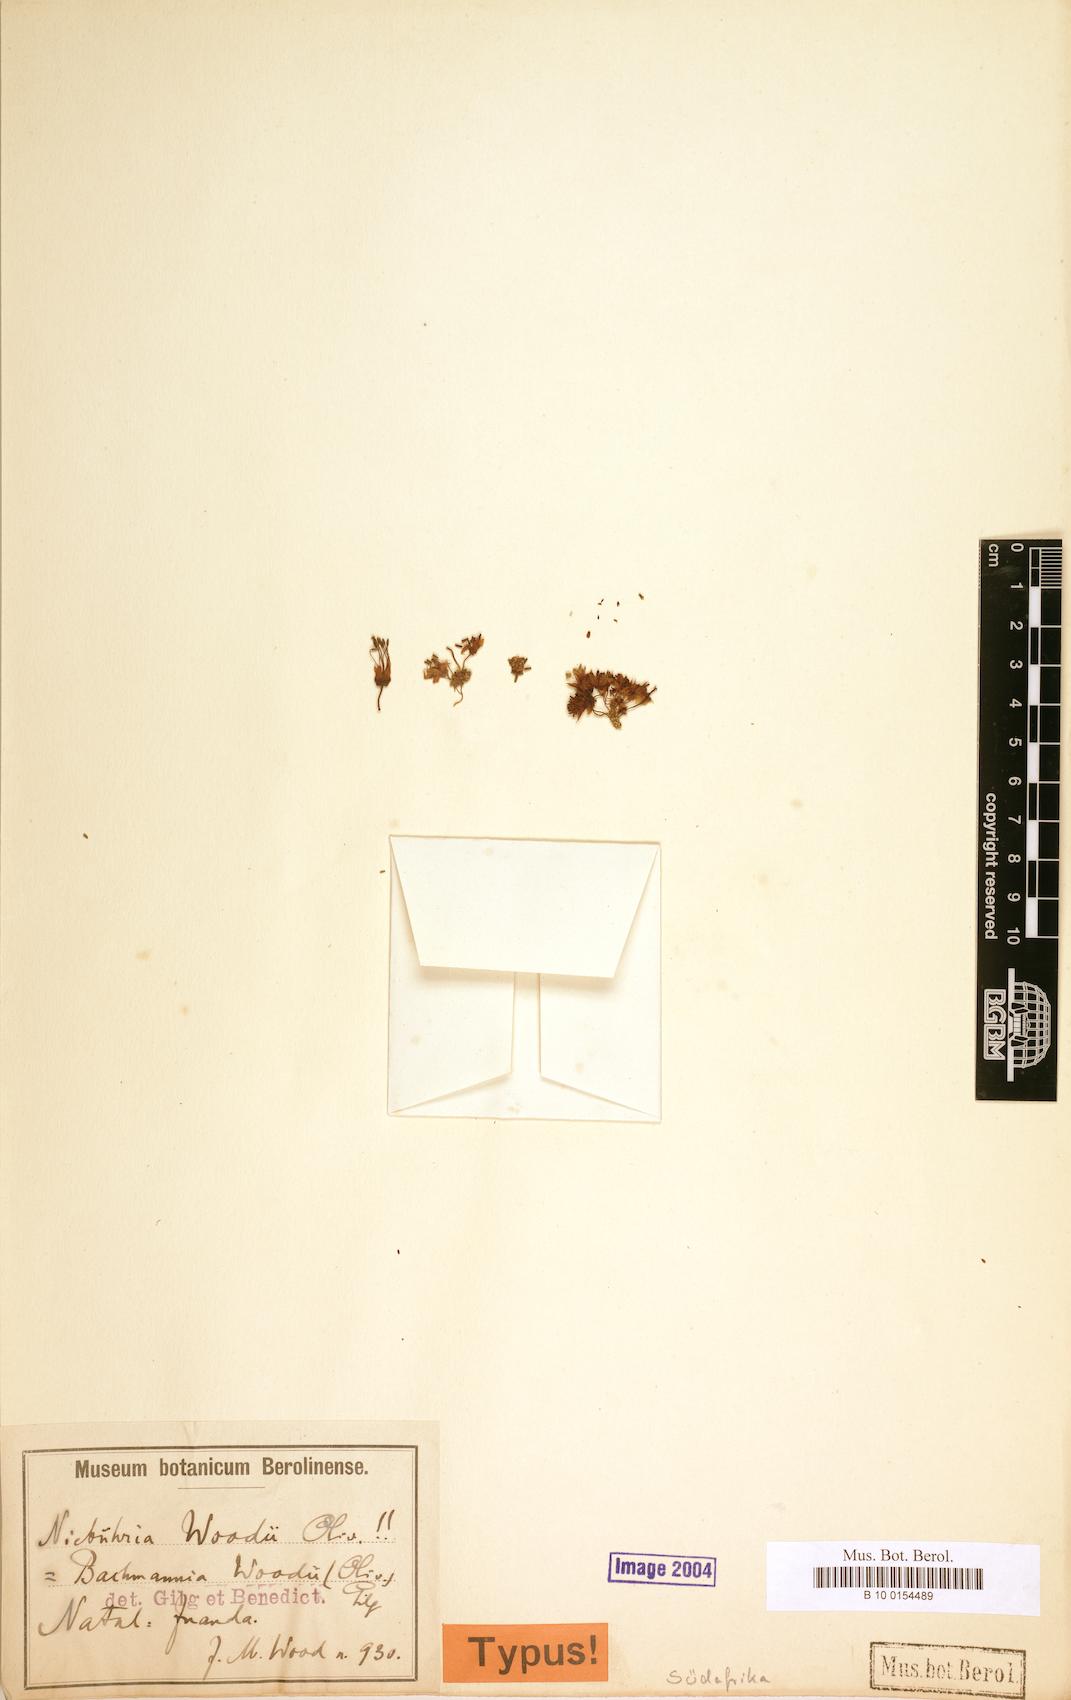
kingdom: Plantae
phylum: Tracheophyta
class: Magnoliopsida
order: Brassicales
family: Capparaceae
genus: Bachmannia
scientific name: Bachmannia woodii
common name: Four-finger bush
